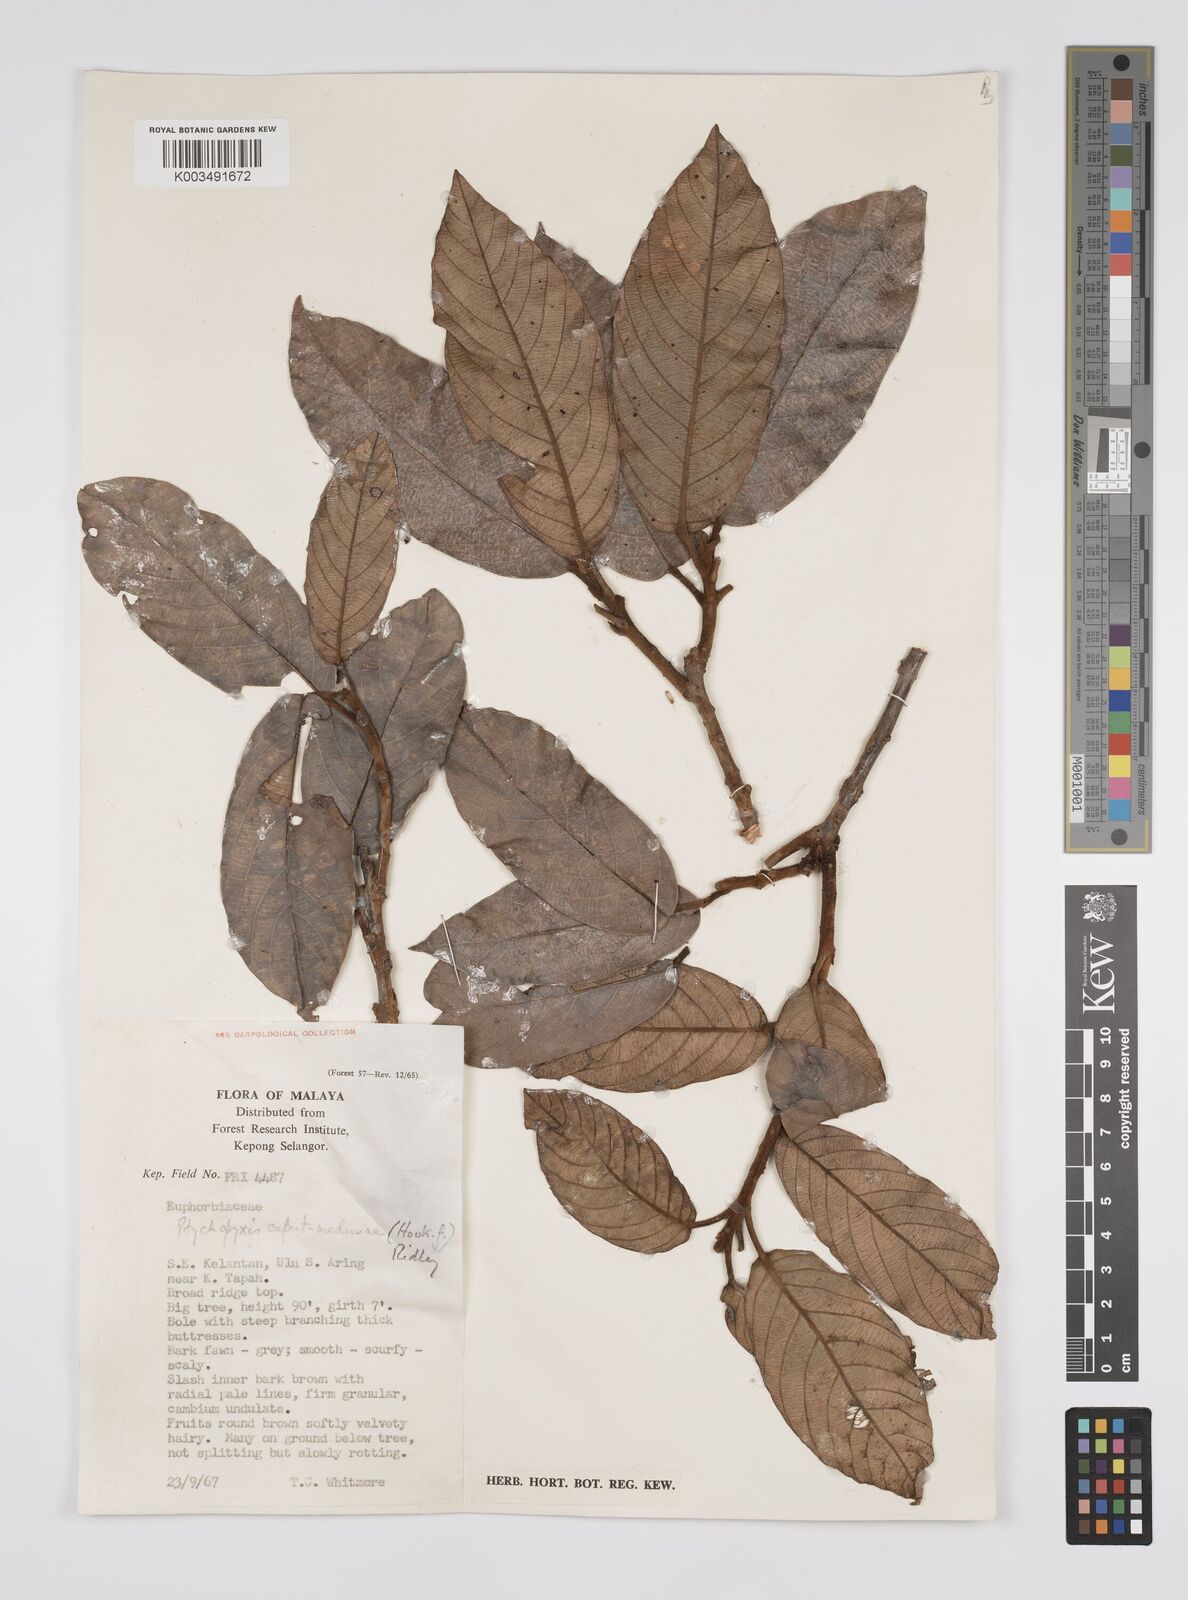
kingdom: Plantae
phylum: Tracheophyta
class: Magnoliopsida
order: Malpighiales
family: Euphorbiaceae
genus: Ptychopyxis
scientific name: Ptychopyxis caput-medusae
